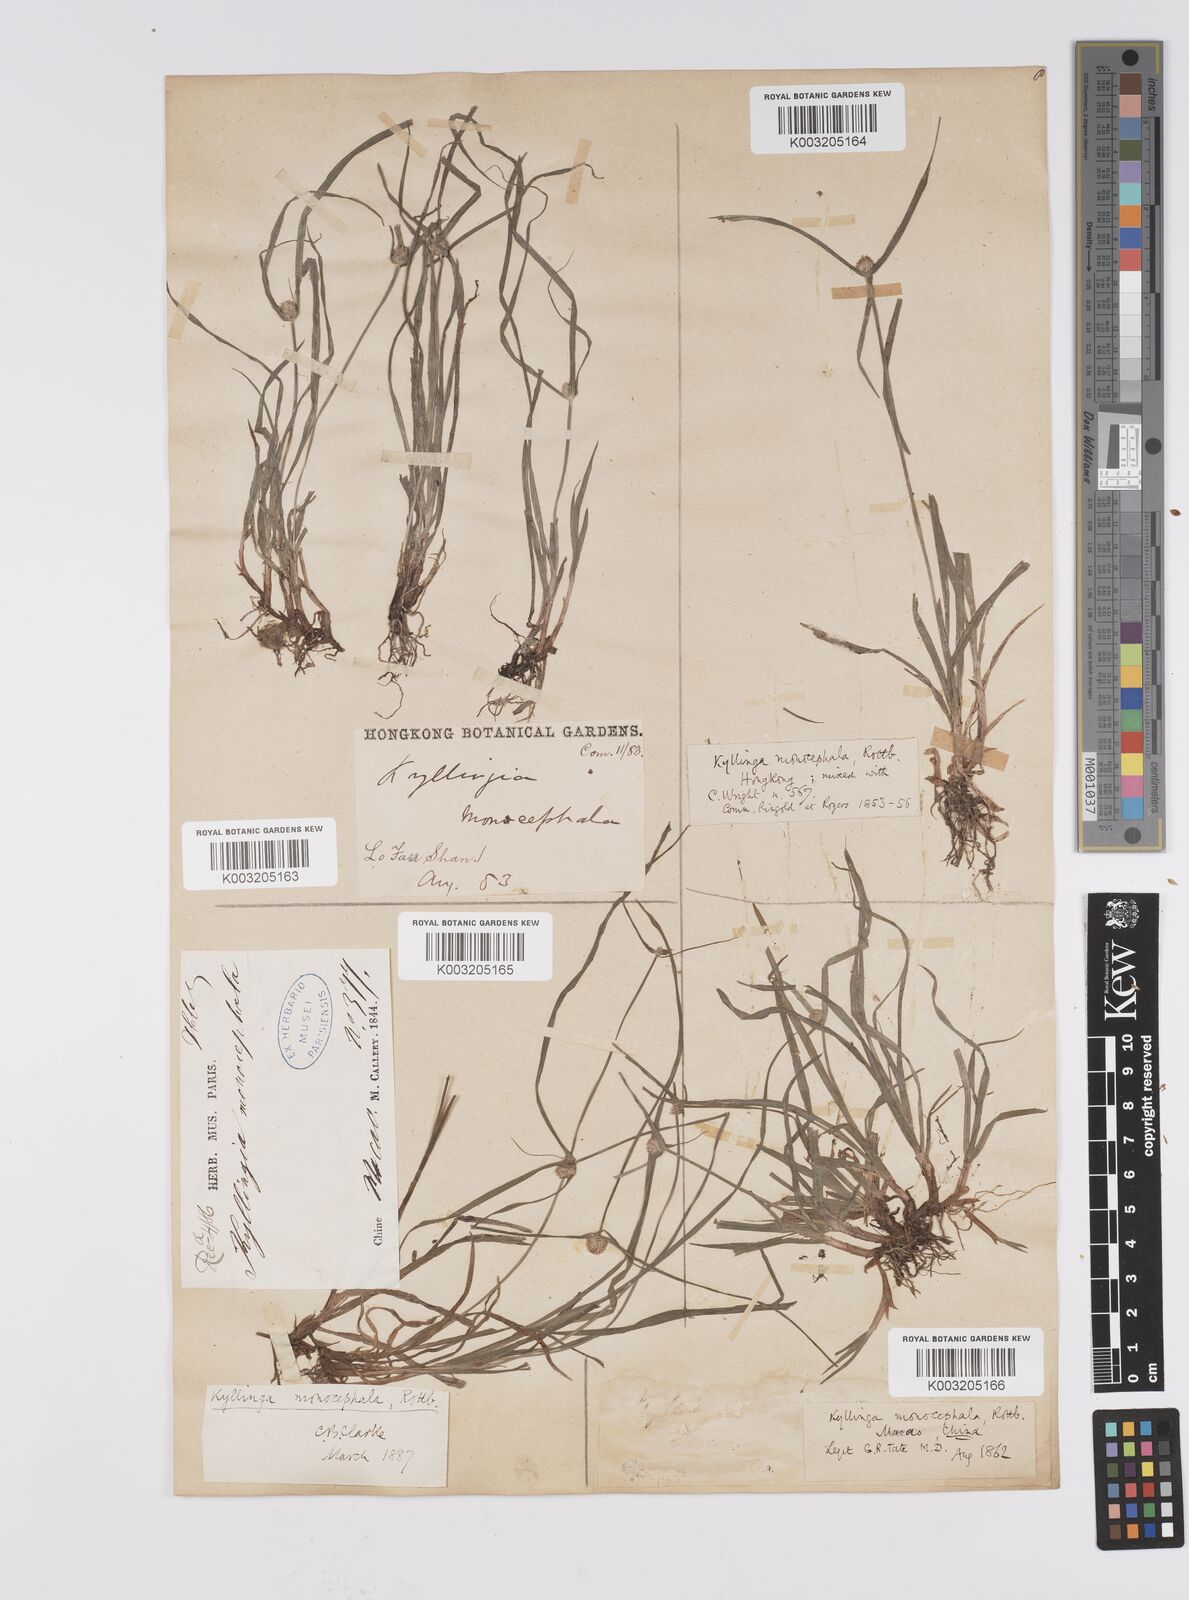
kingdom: Plantae
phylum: Tracheophyta
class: Liliopsida
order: Poales
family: Cyperaceae
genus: Cyperus
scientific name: Cyperus nemoralis
